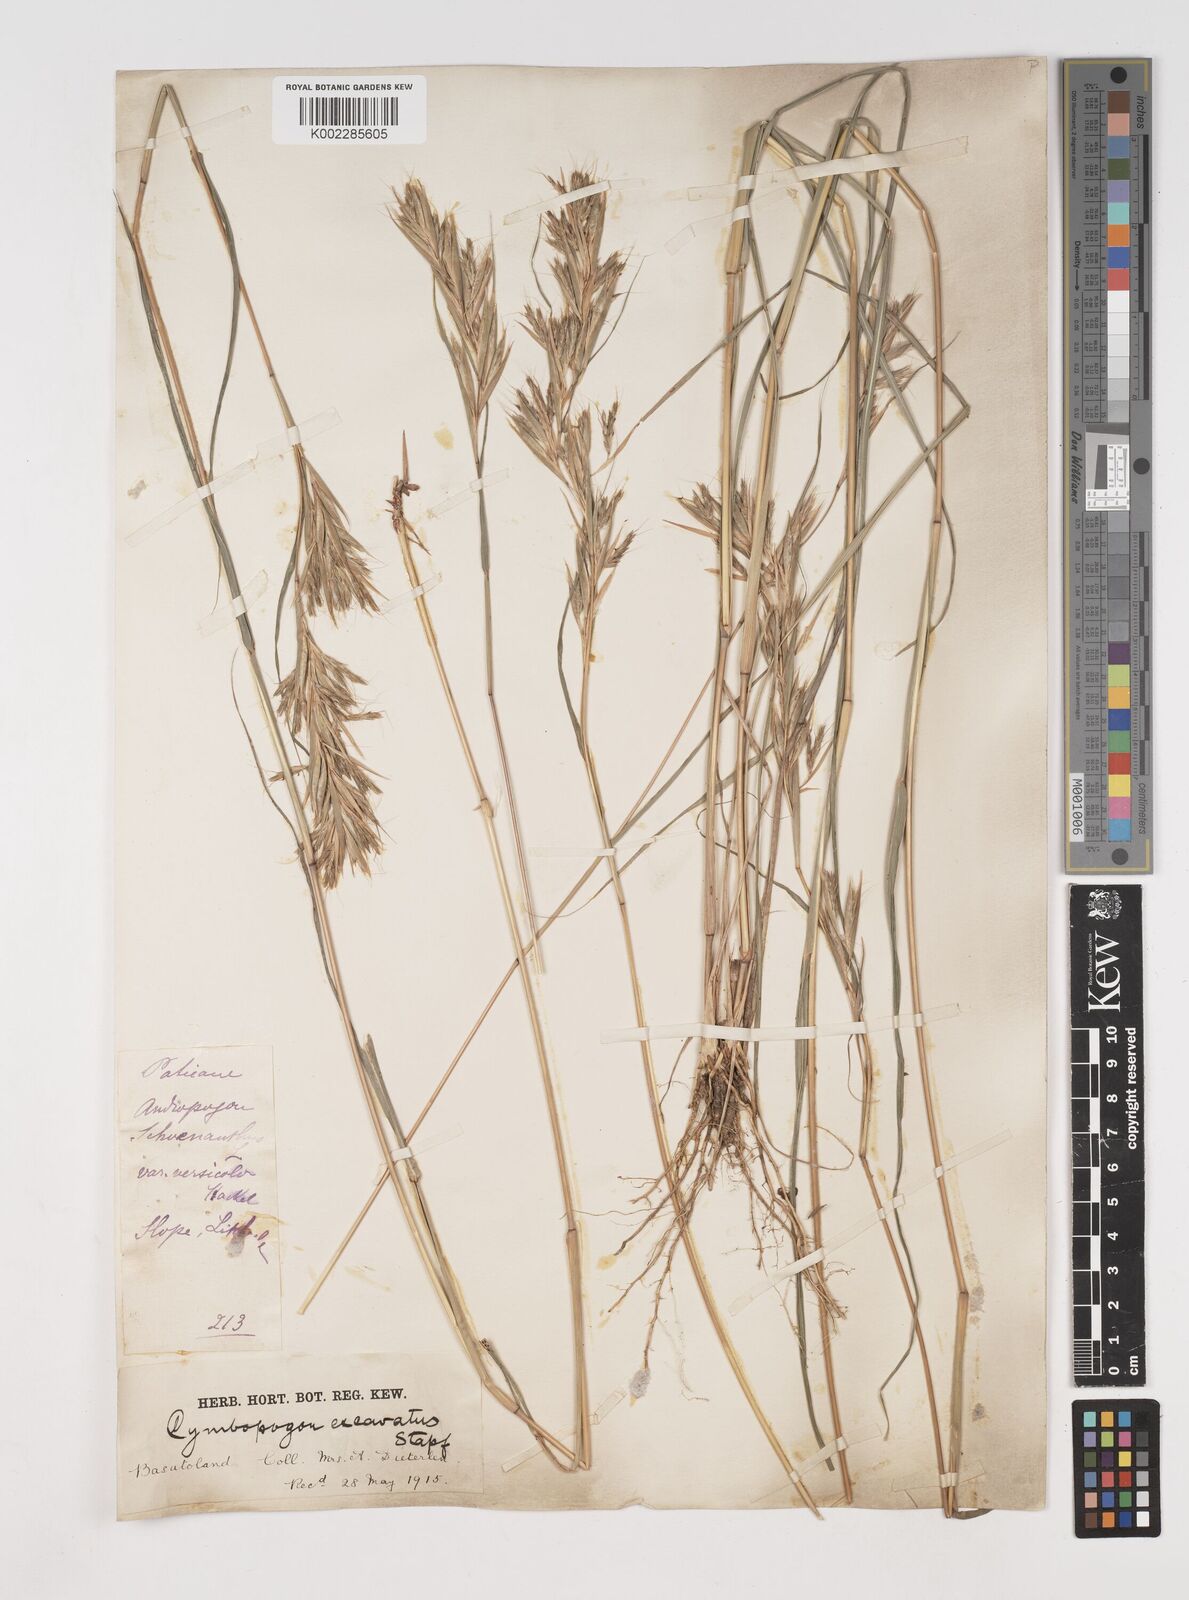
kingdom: Plantae
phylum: Tracheophyta
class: Liliopsida
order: Poales
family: Poaceae
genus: Cymbopogon
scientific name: Cymbopogon caesius
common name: Kachi grass
